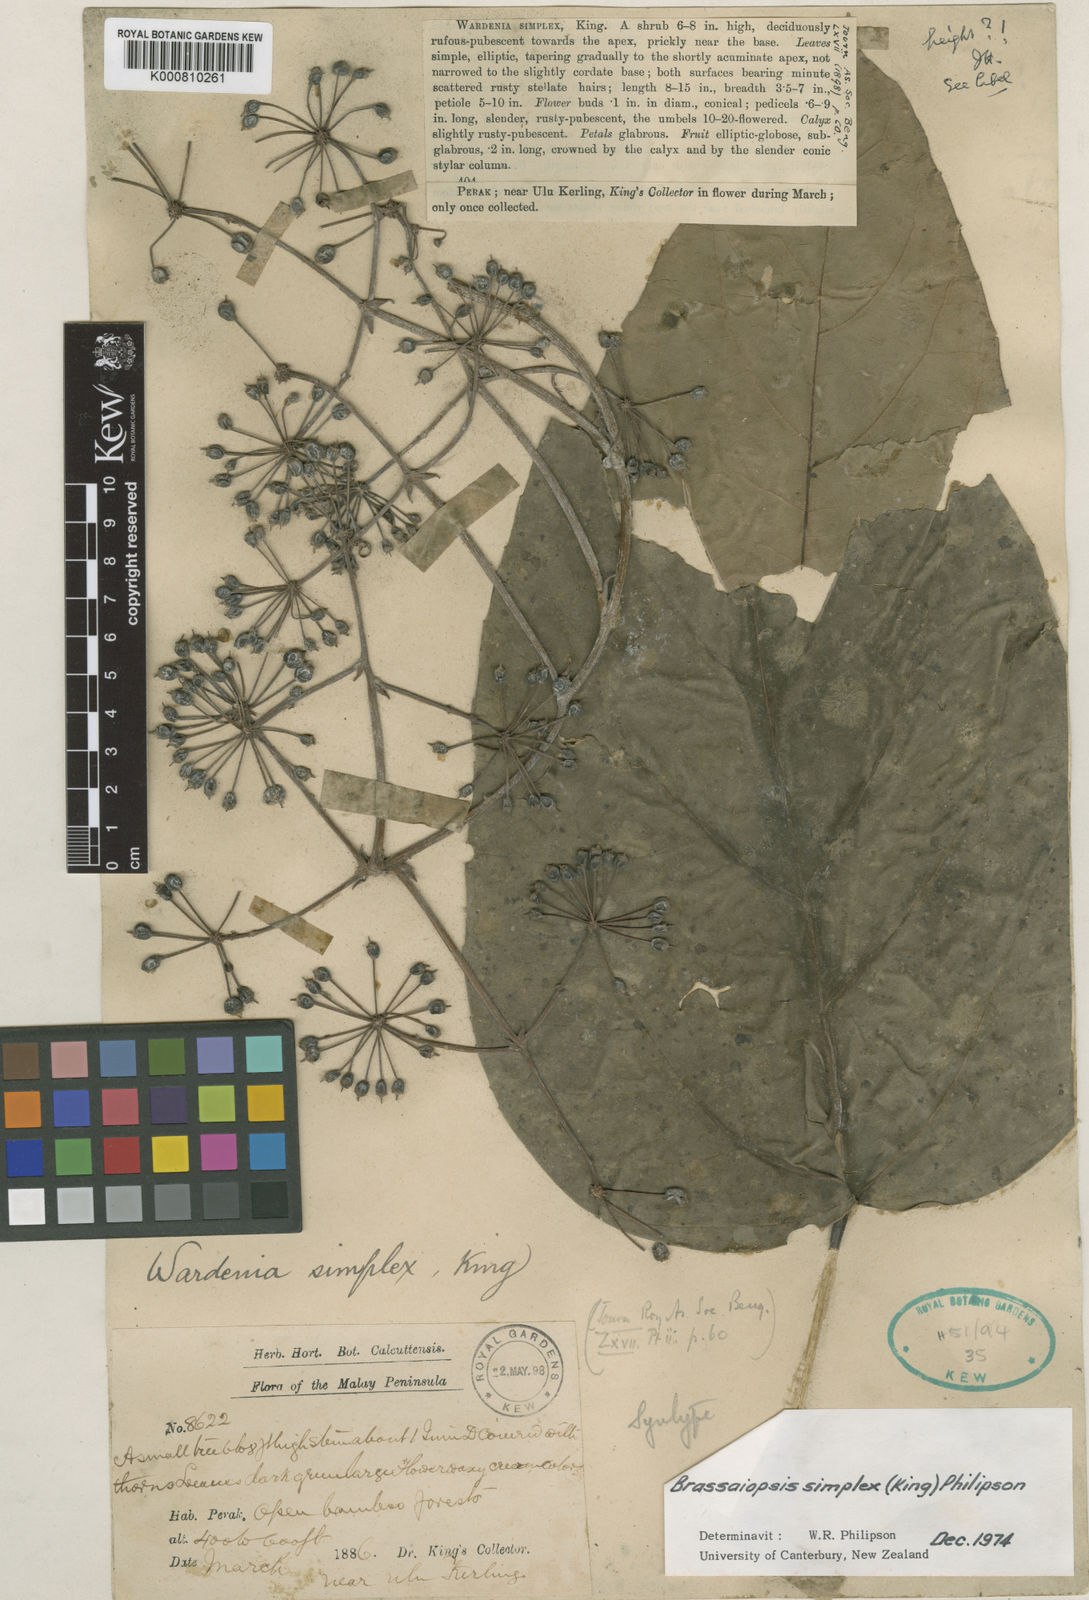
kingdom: Plantae
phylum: Tracheophyta
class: Magnoliopsida
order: Apiales
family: Araliaceae
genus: Brassaiopsis
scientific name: Brassaiopsis simplex
